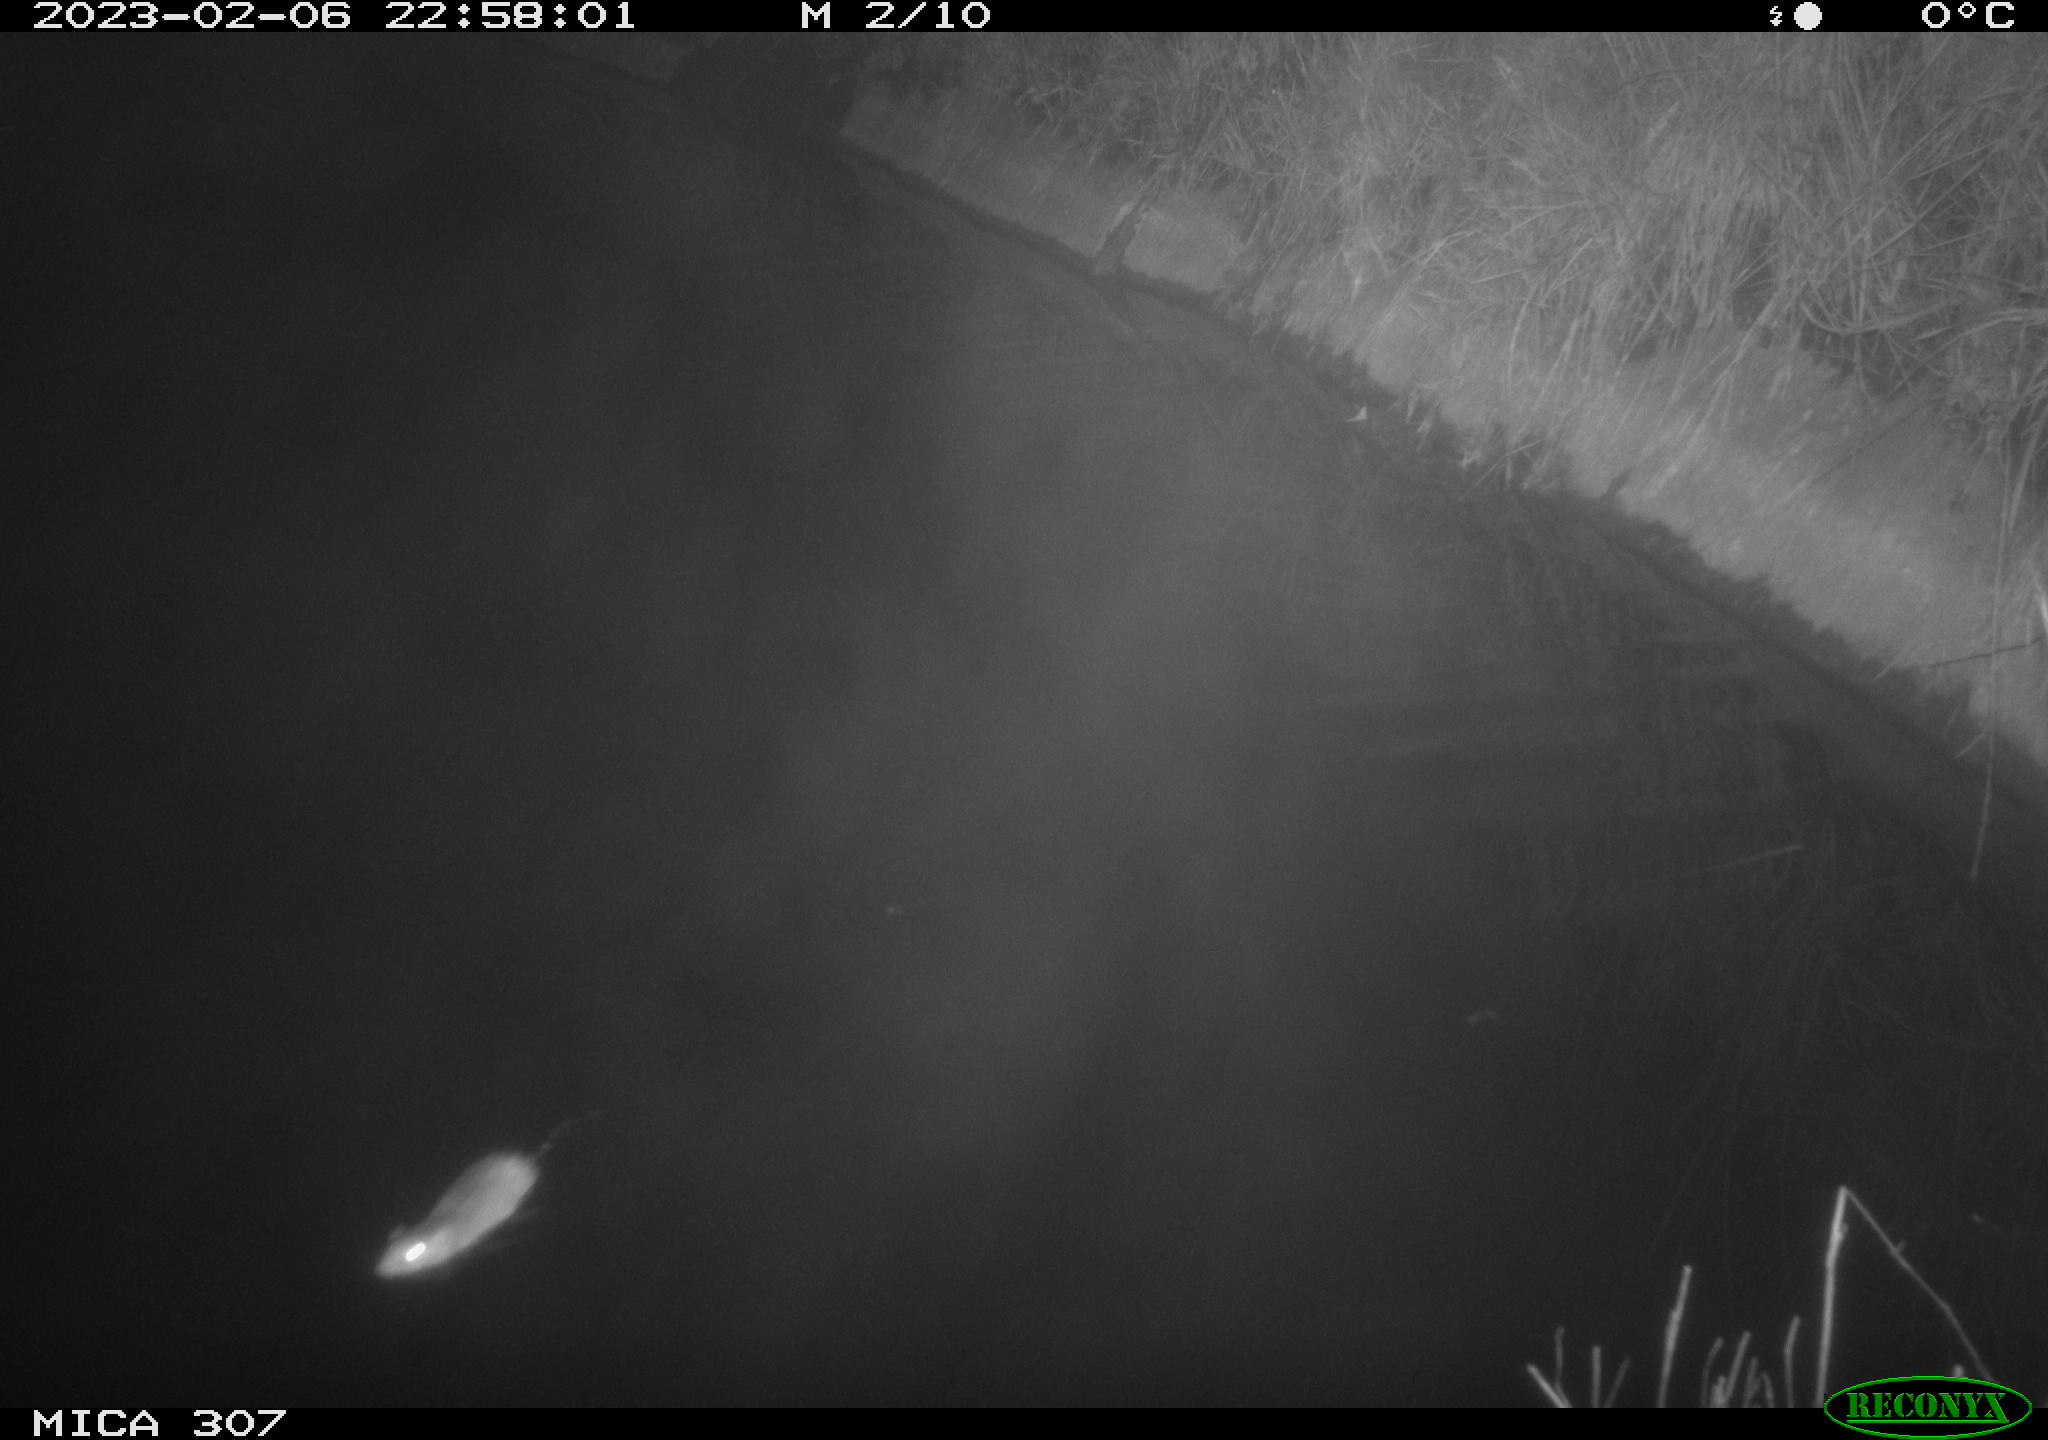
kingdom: Animalia
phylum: Chordata
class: Mammalia
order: Rodentia
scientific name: Rodentia
